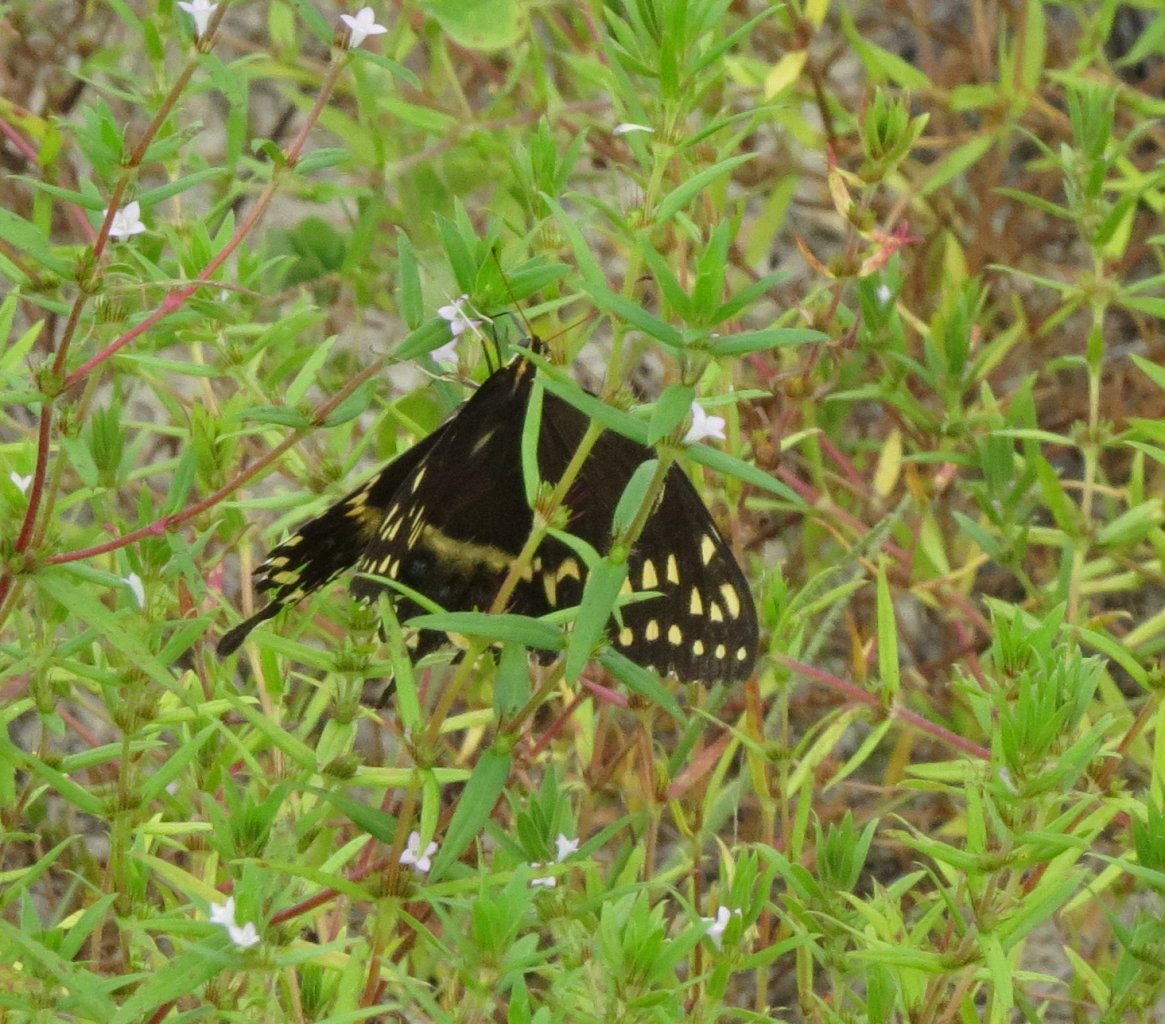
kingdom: Animalia
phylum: Arthropoda
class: Insecta
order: Lepidoptera
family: Papilionidae
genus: Pterourus
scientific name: Pterourus palamedes
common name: Palamedes Swallowtail
